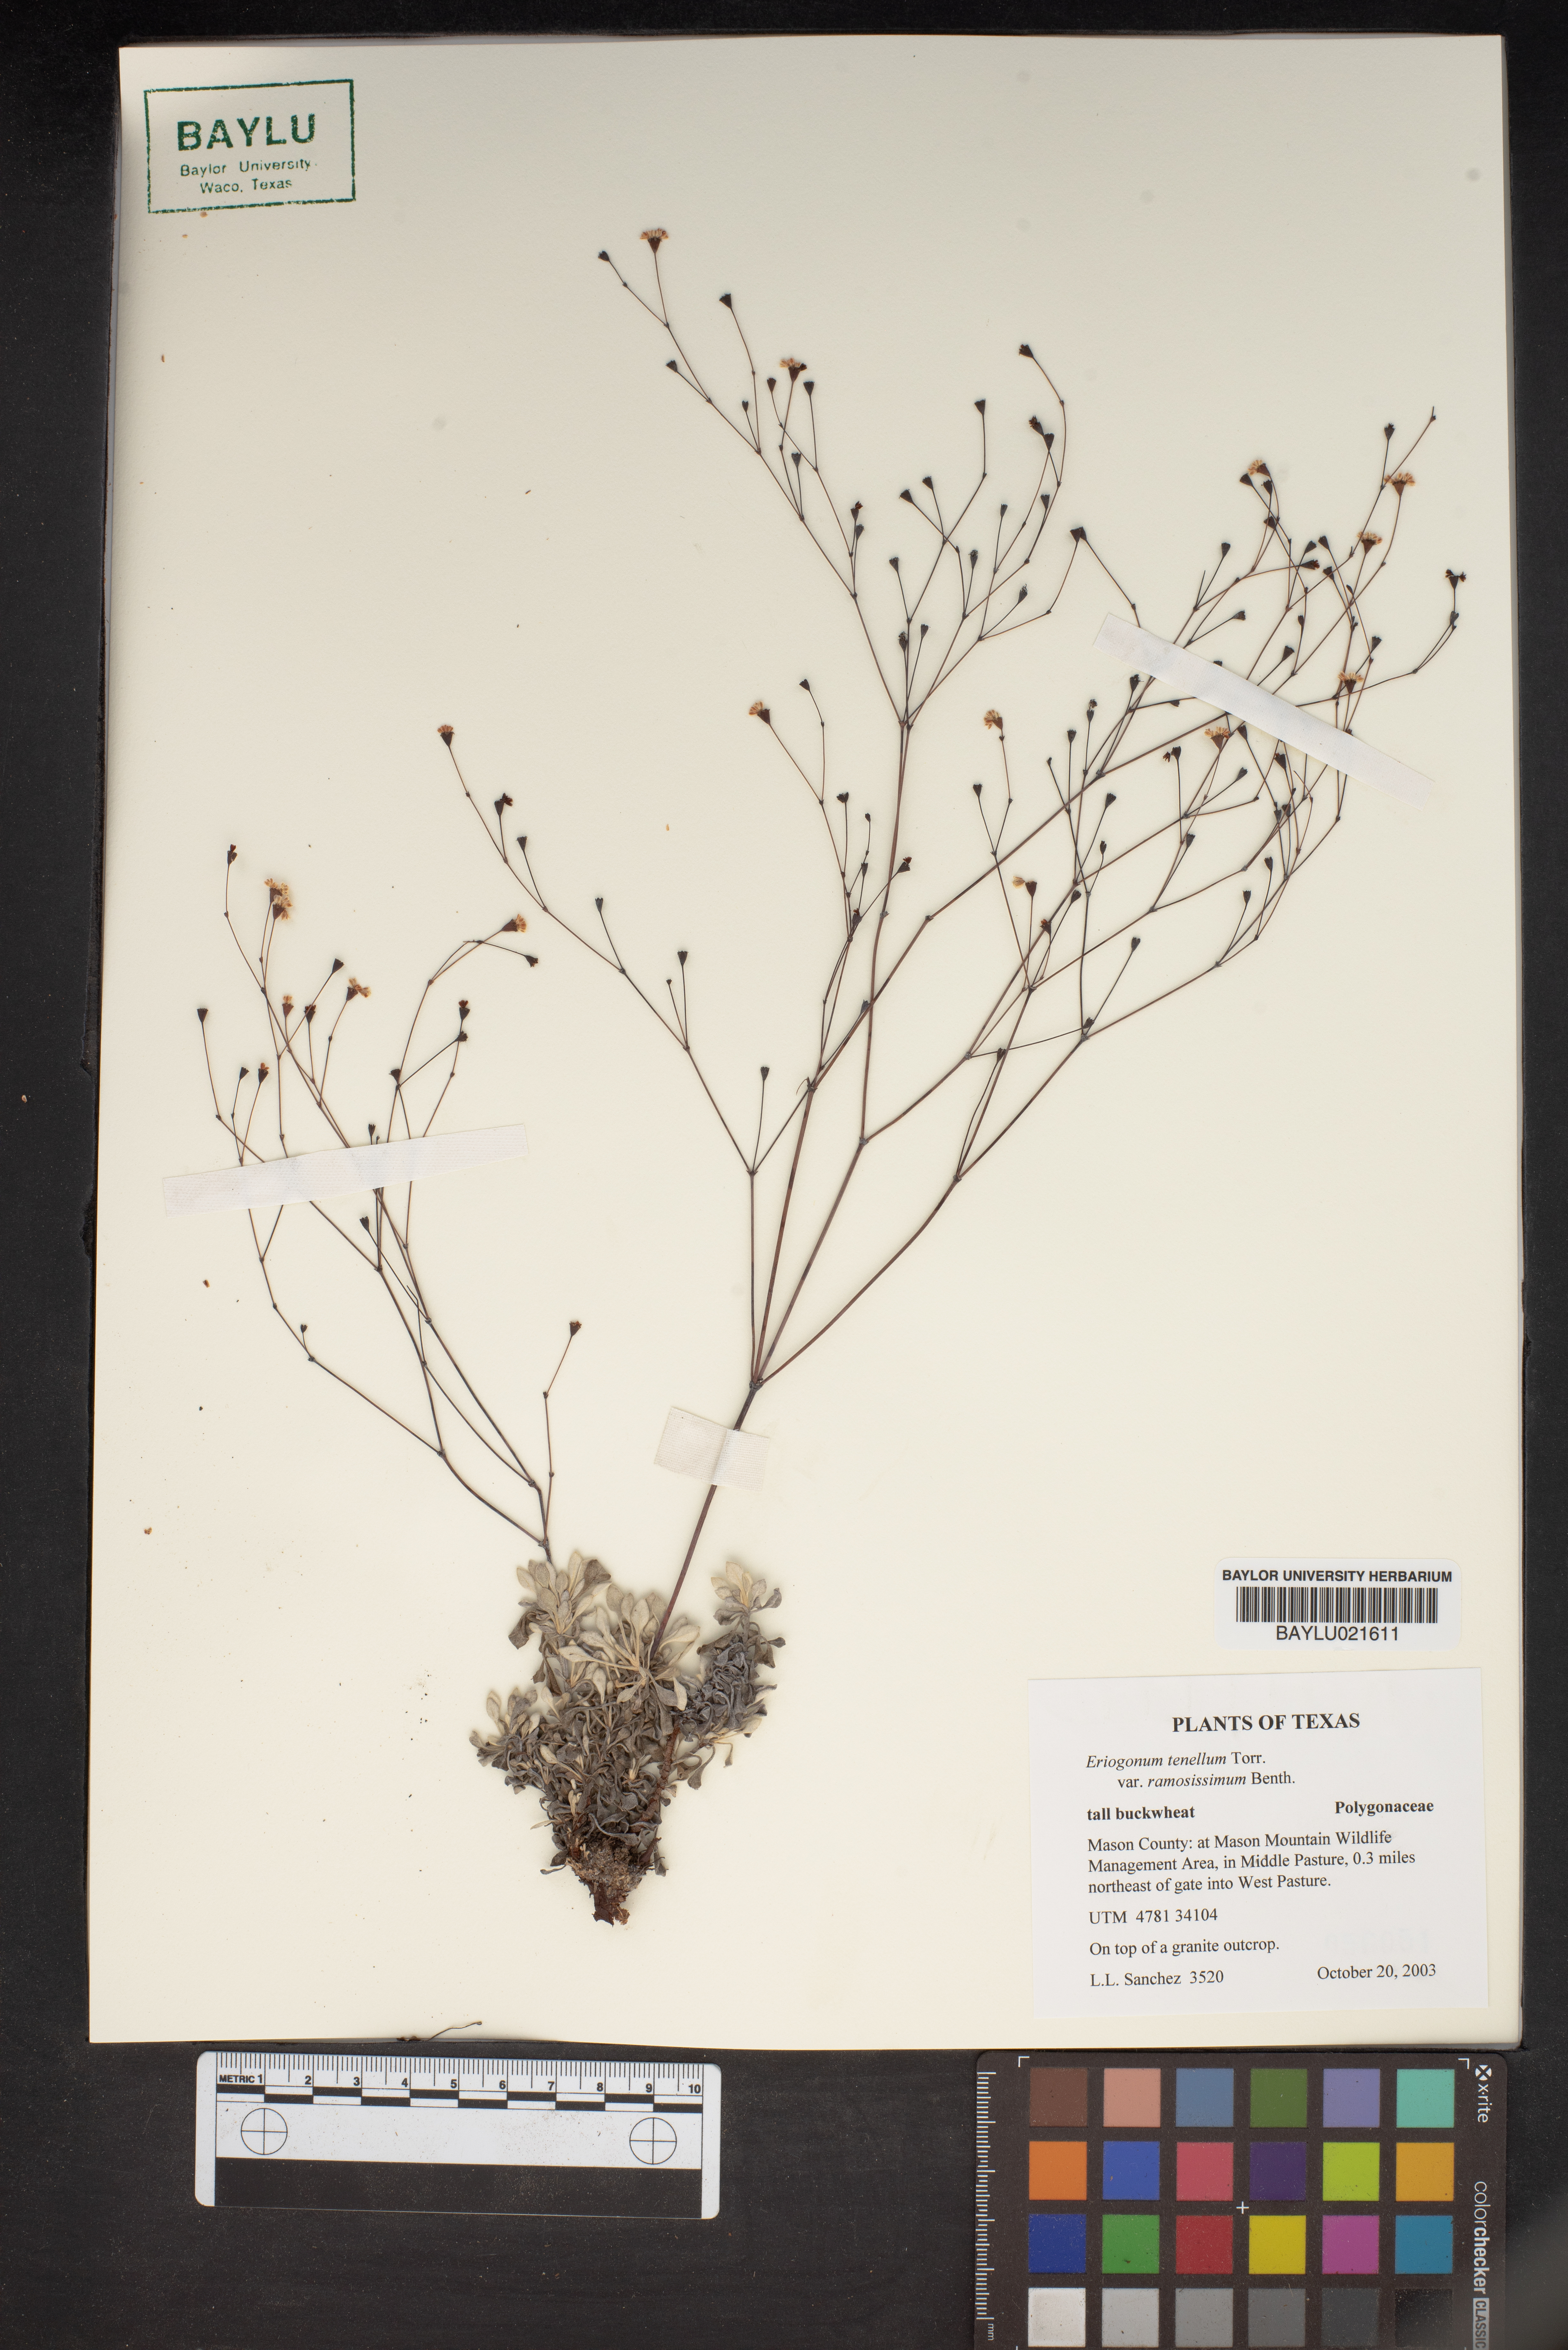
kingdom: Plantae
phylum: Tracheophyta
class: Magnoliopsida
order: Caryophyllales
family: Polygonaceae
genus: Eriogonum
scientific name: Eriogonum graniticum
